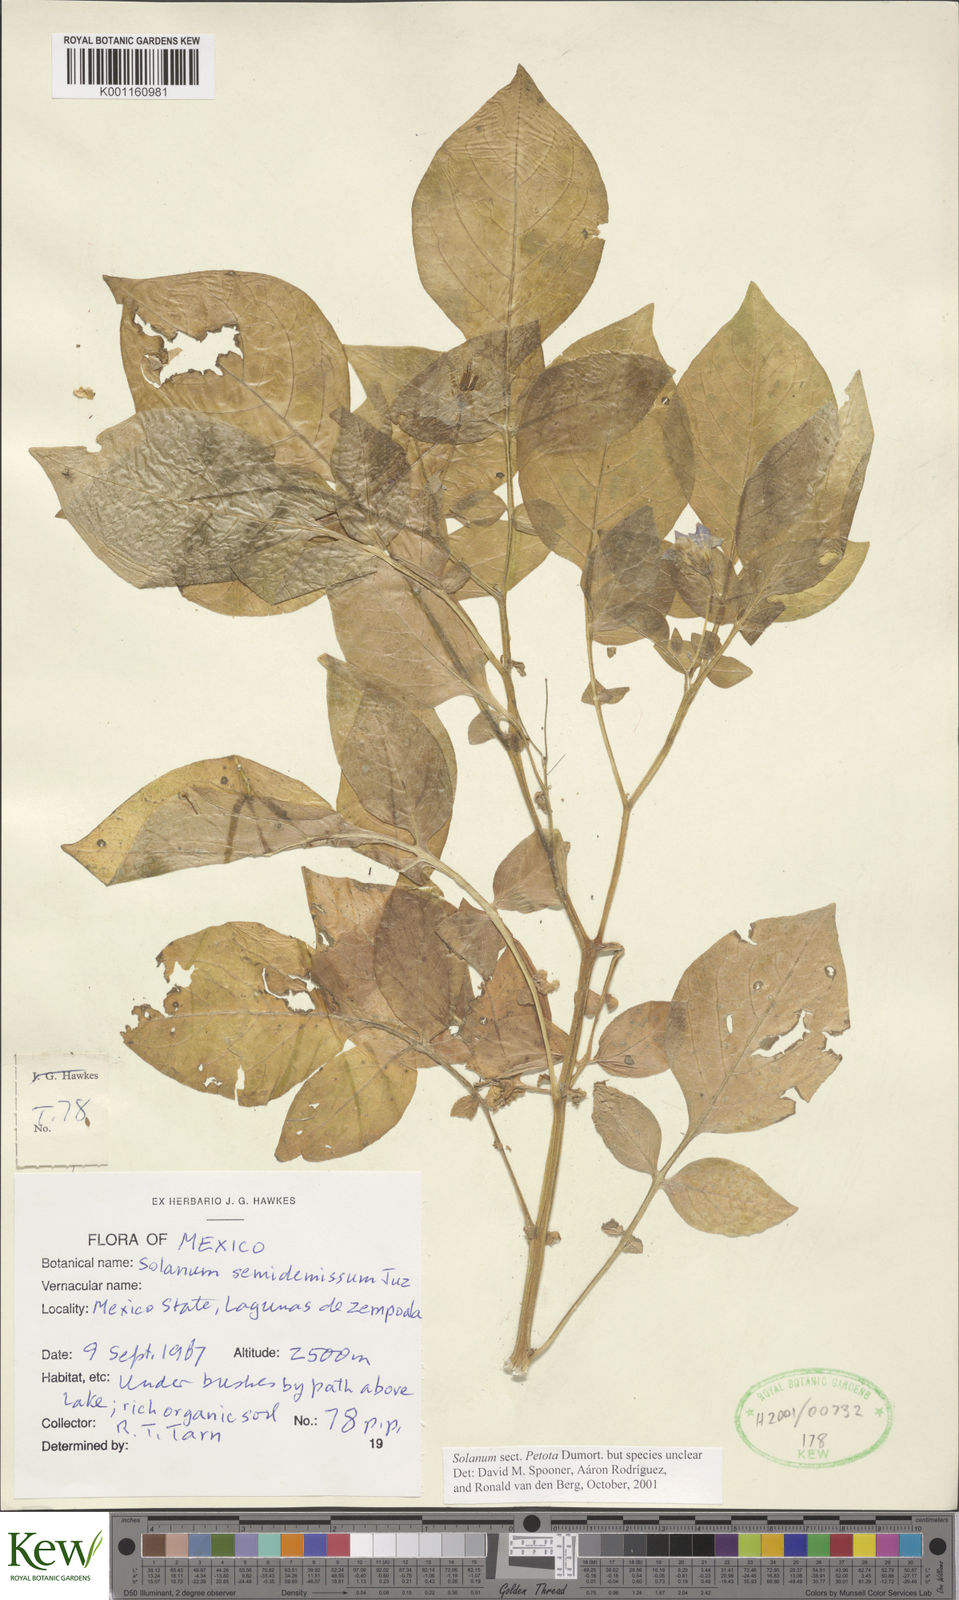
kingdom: Plantae
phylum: Tracheophyta
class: Magnoliopsida
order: Solanales
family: Solanaceae
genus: Solanum
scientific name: Solanum
